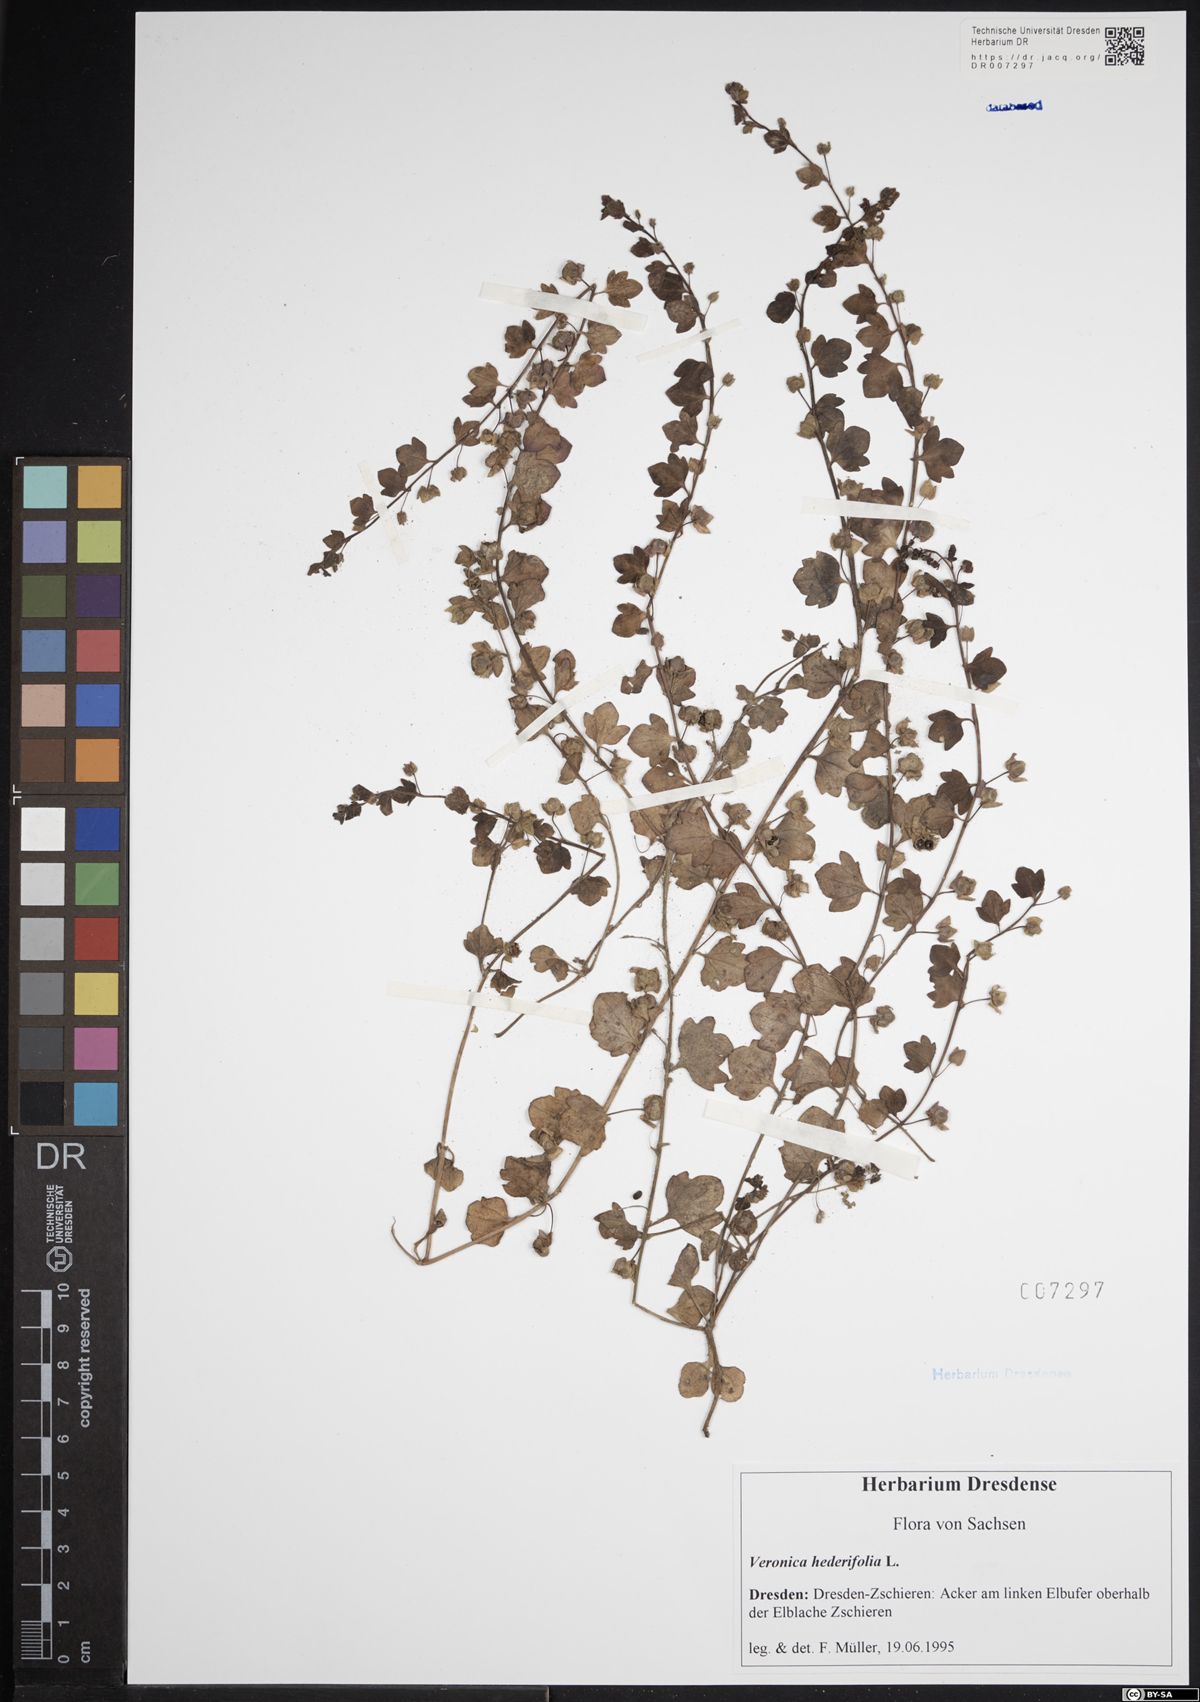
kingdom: Plantae
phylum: Tracheophyta
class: Magnoliopsida
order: Lamiales
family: Plantaginaceae
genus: Veronica
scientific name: Veronica hederifolia
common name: Ivy-leaved speedwell
